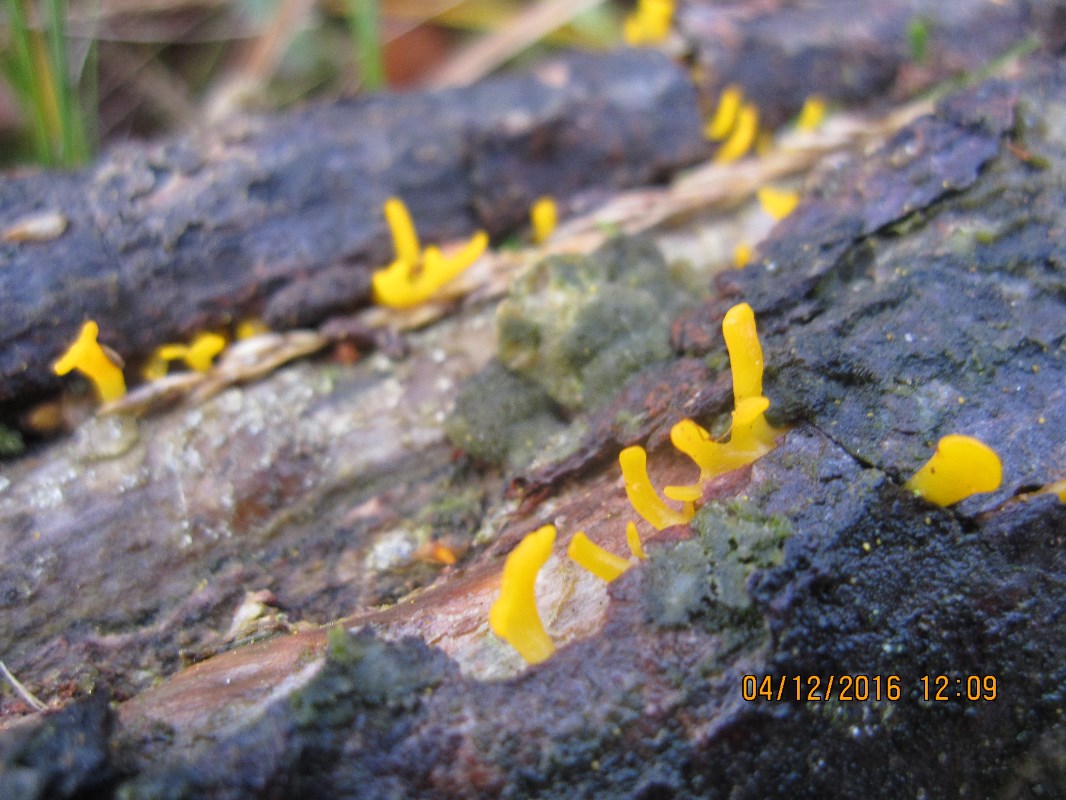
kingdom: Fungi
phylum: Basidiomycota
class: Dacrymycetes
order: Dacrymycetales
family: Dacrymycetaceae
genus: Calocera
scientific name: Calocera furcata
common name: fyrre-guldgaffel
